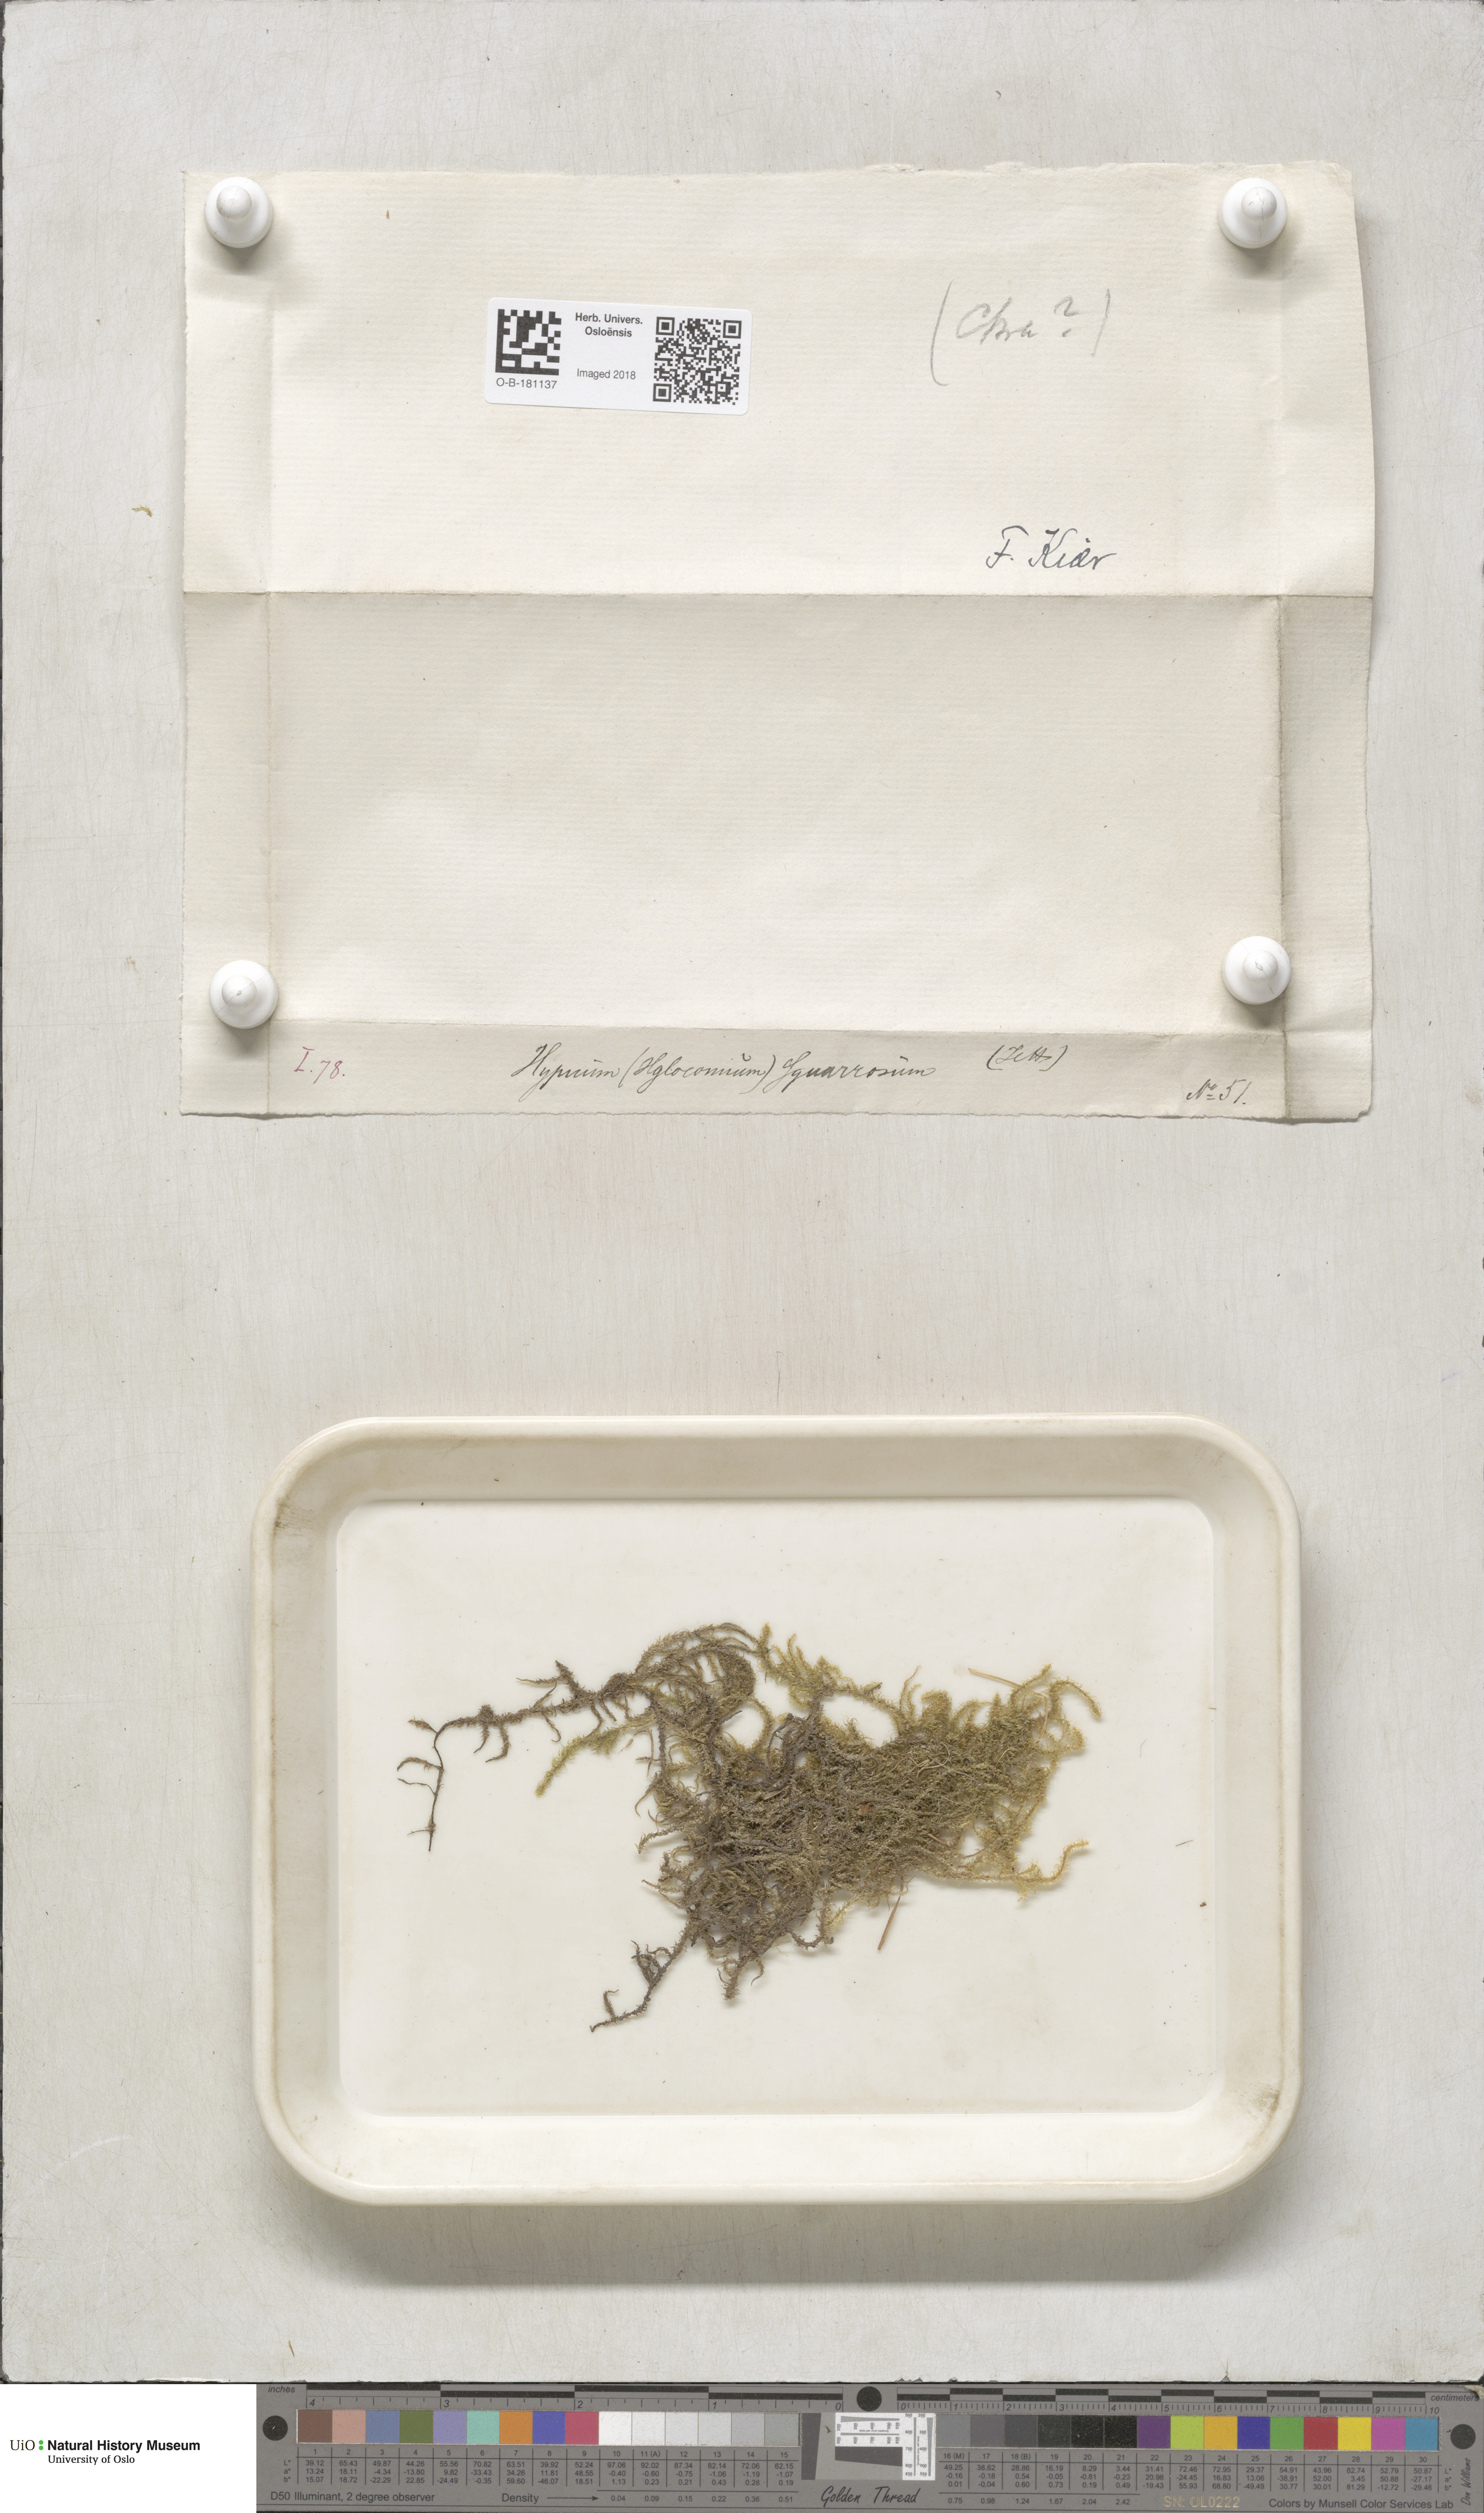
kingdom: Plantae
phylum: Bryophyta
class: Bryopsida
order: Hypnales
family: Hylocomiaceae
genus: Rhytidiadelphus
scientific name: Rhytidiadelphus squarrosus
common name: Springy turf-moss
